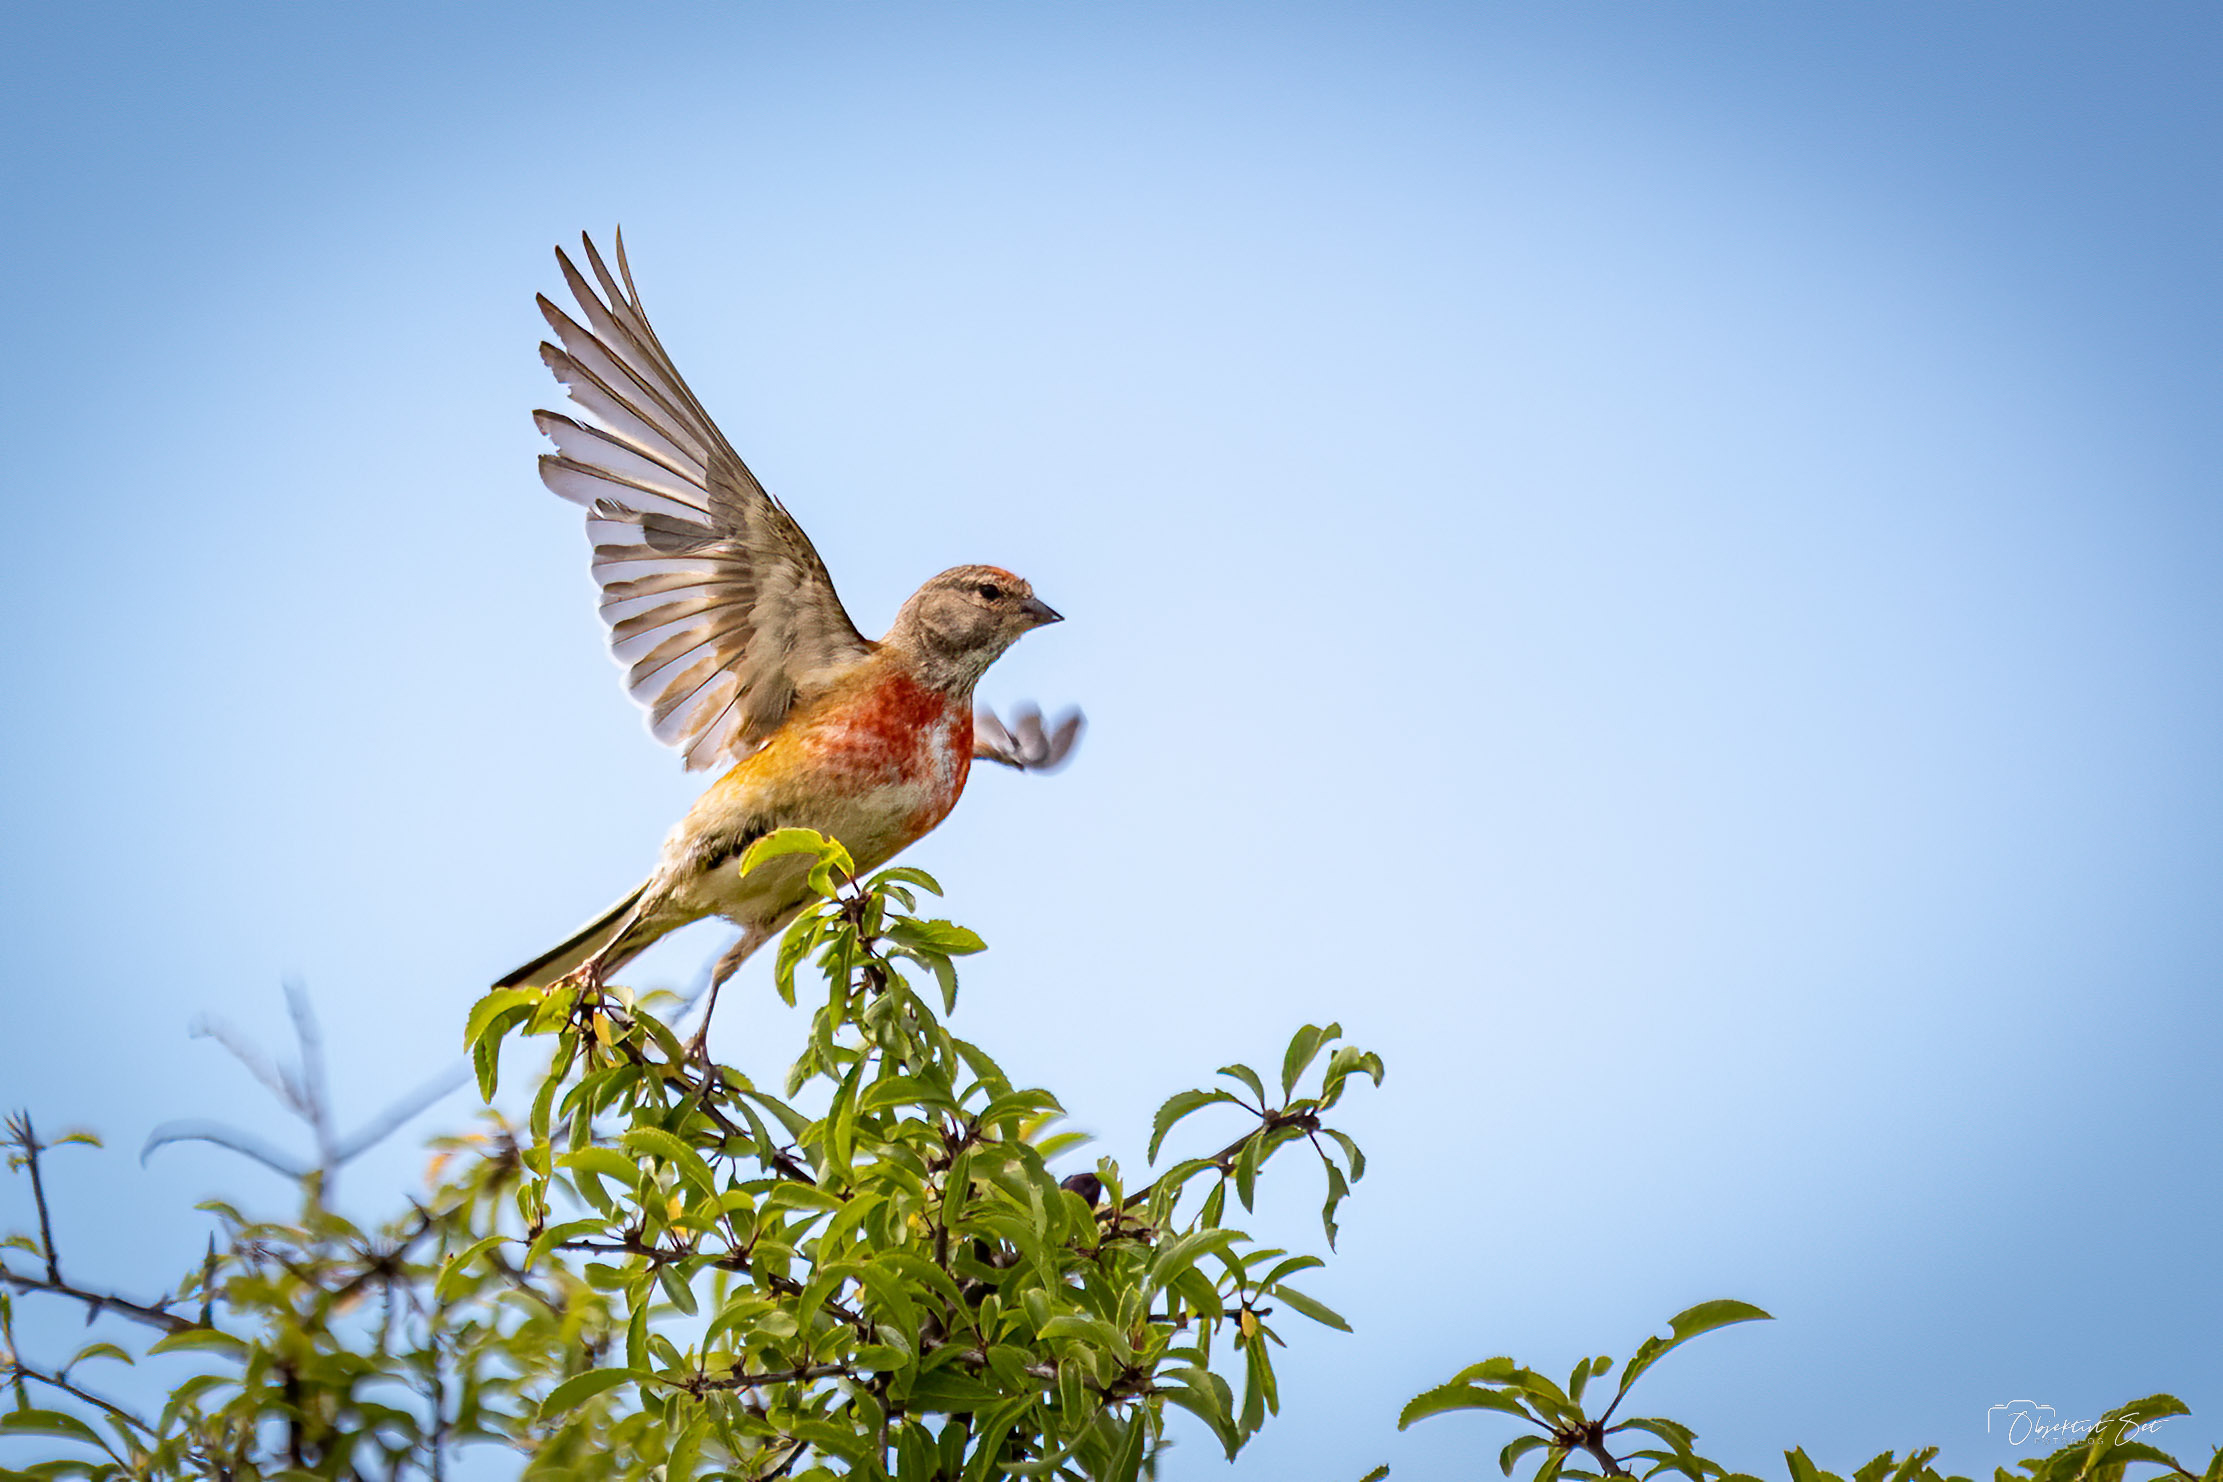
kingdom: Animalia
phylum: Chordata
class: Aves
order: Passeriformes
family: Fringillidae
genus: Linaria
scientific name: Linaria cannabina
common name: Tornirisk
